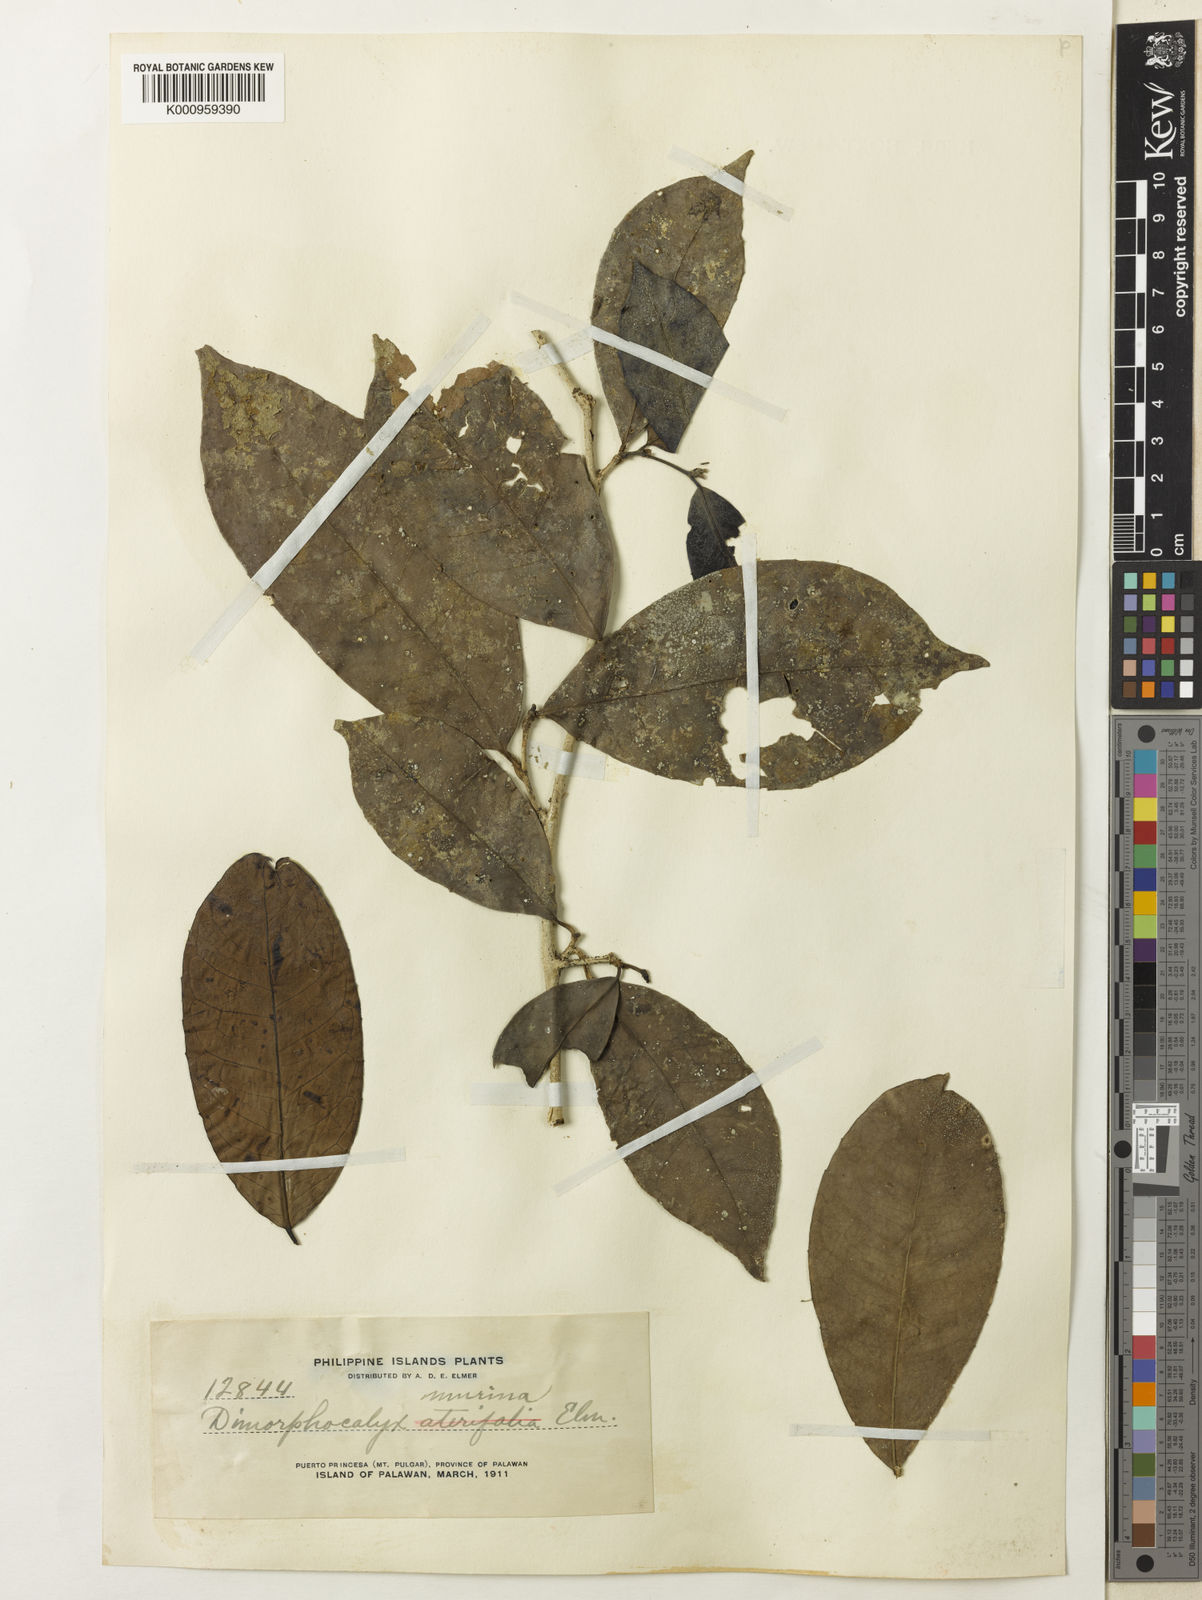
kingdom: Plantae
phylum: Tracheophyta
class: Magnoliopsida
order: Malpighiales
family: Euphorbiaceae
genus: Tritaxis
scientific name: Tritaxis denticulata
